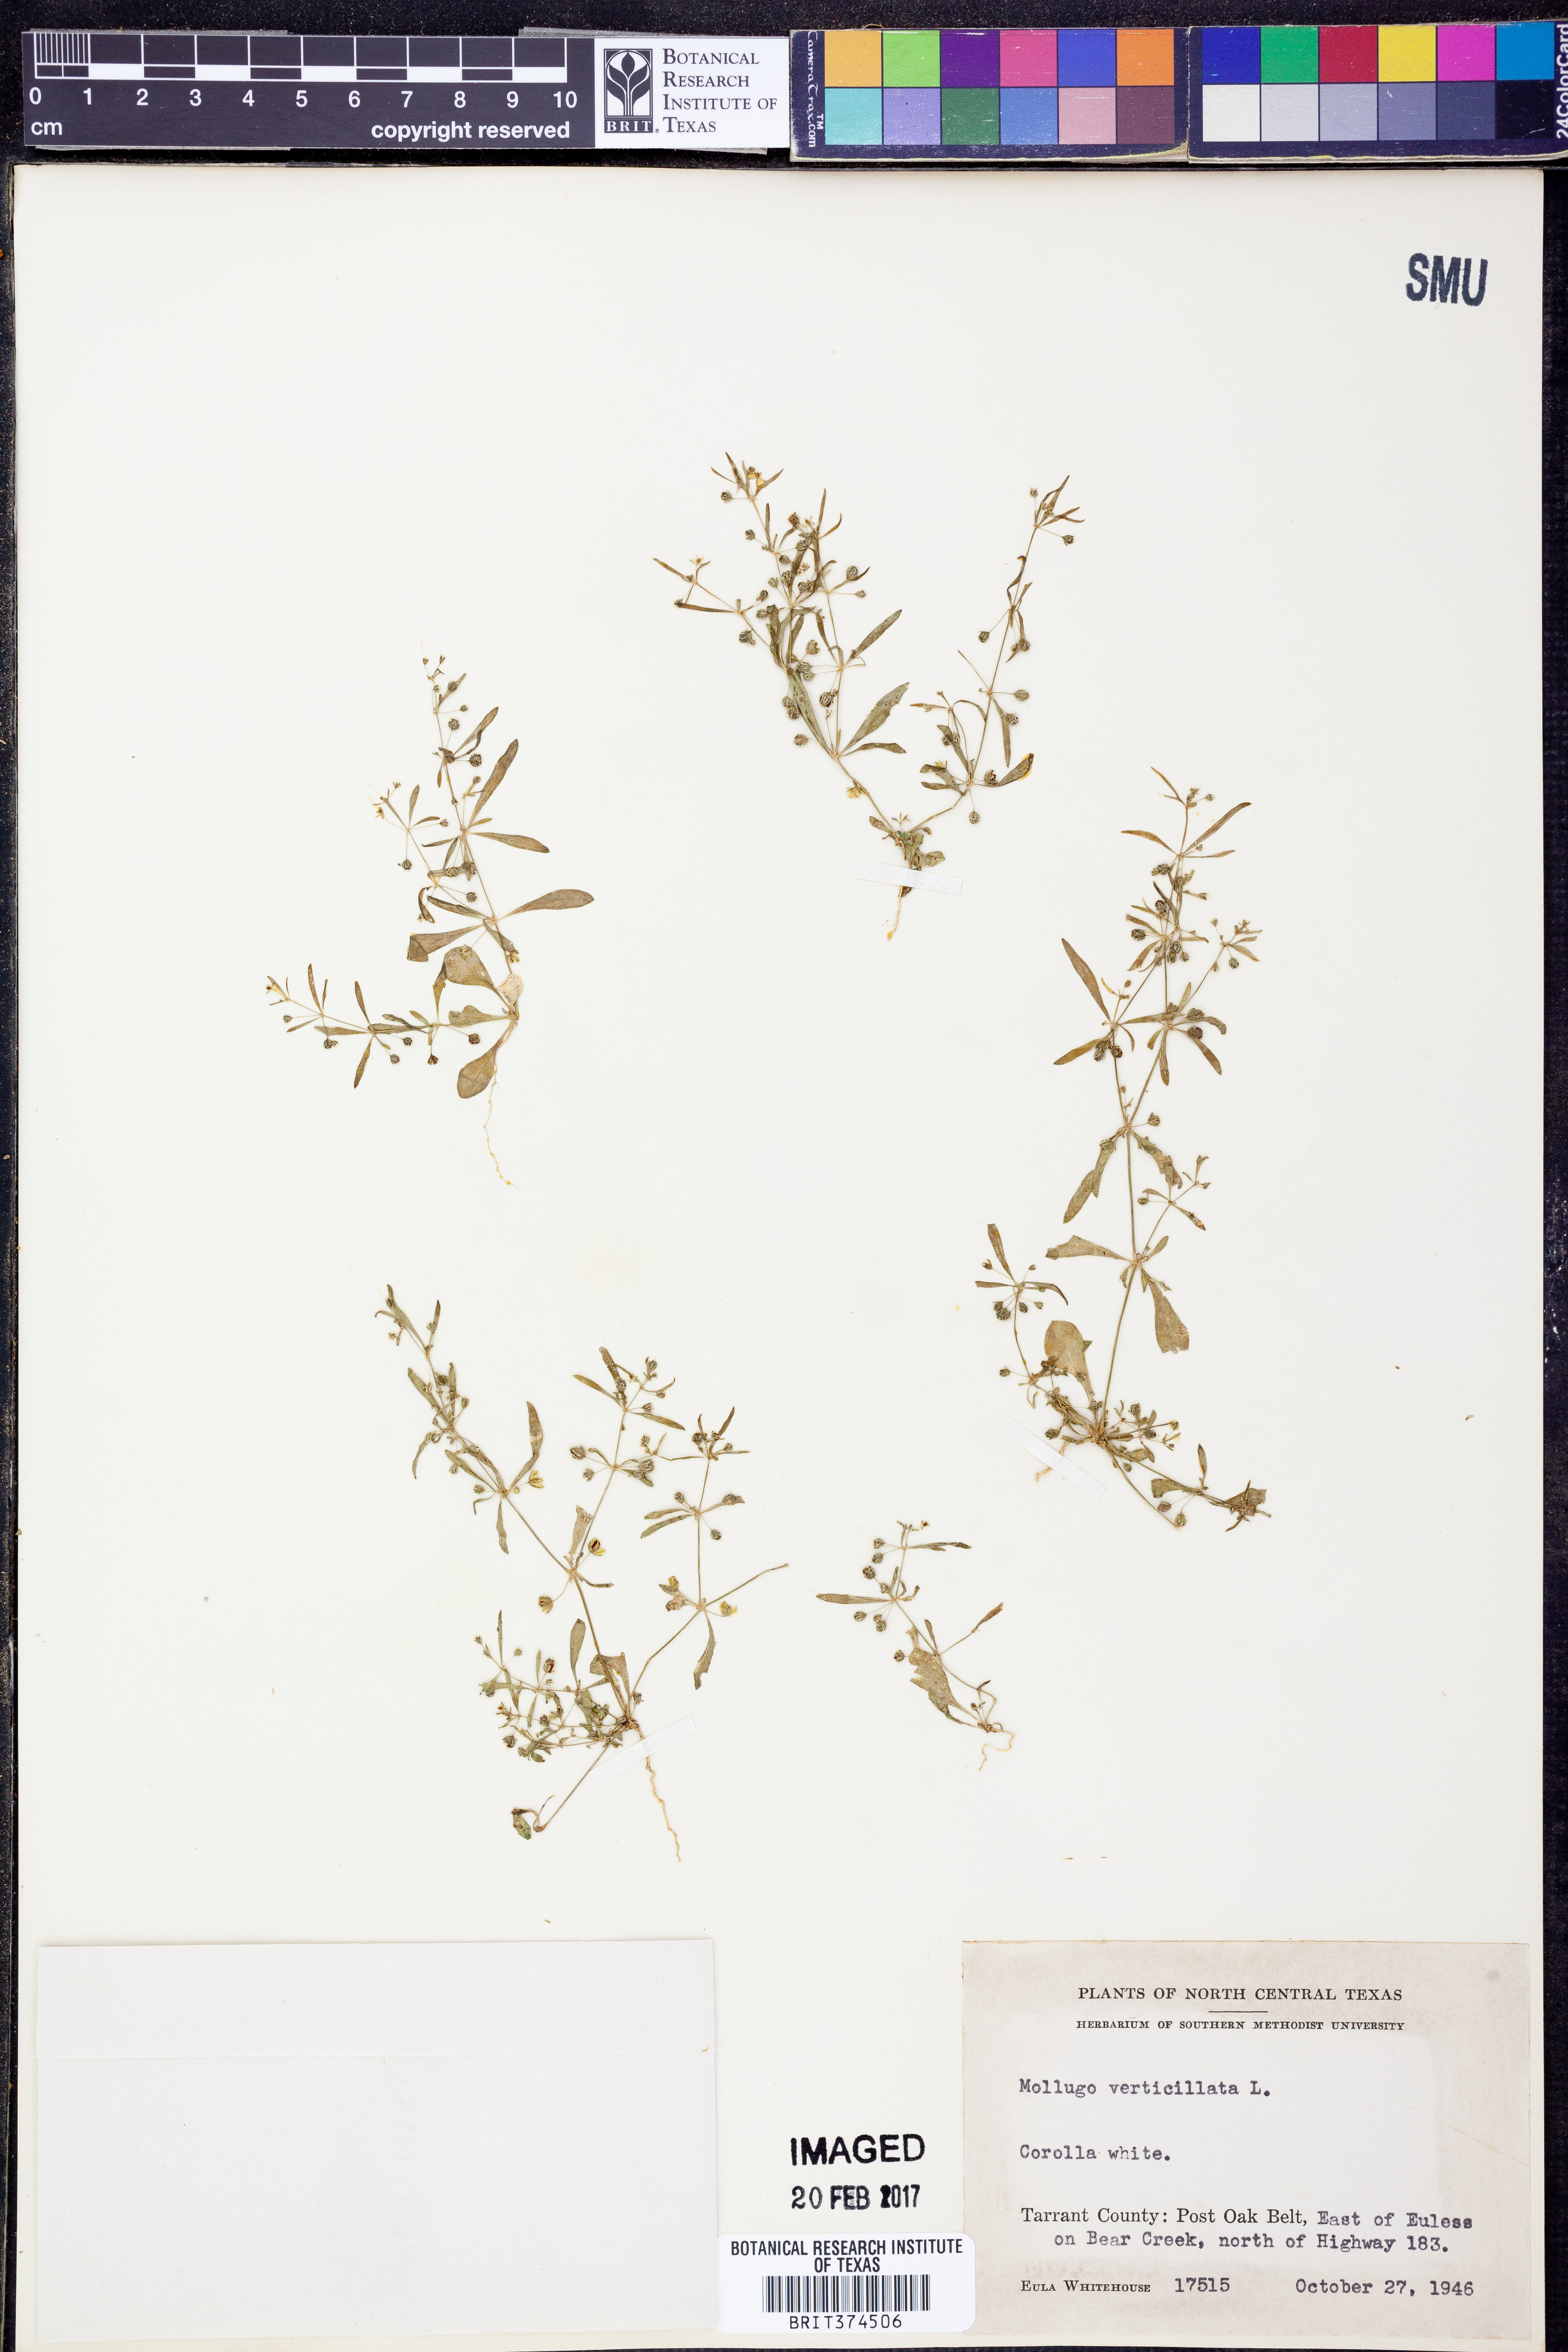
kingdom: Plantae
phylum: Tracheophyta
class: Magnoliopsida
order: Caryophyllales
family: Molluginaceae
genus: Mollugo
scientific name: Mollugo verticillata
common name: Green carpetweed
